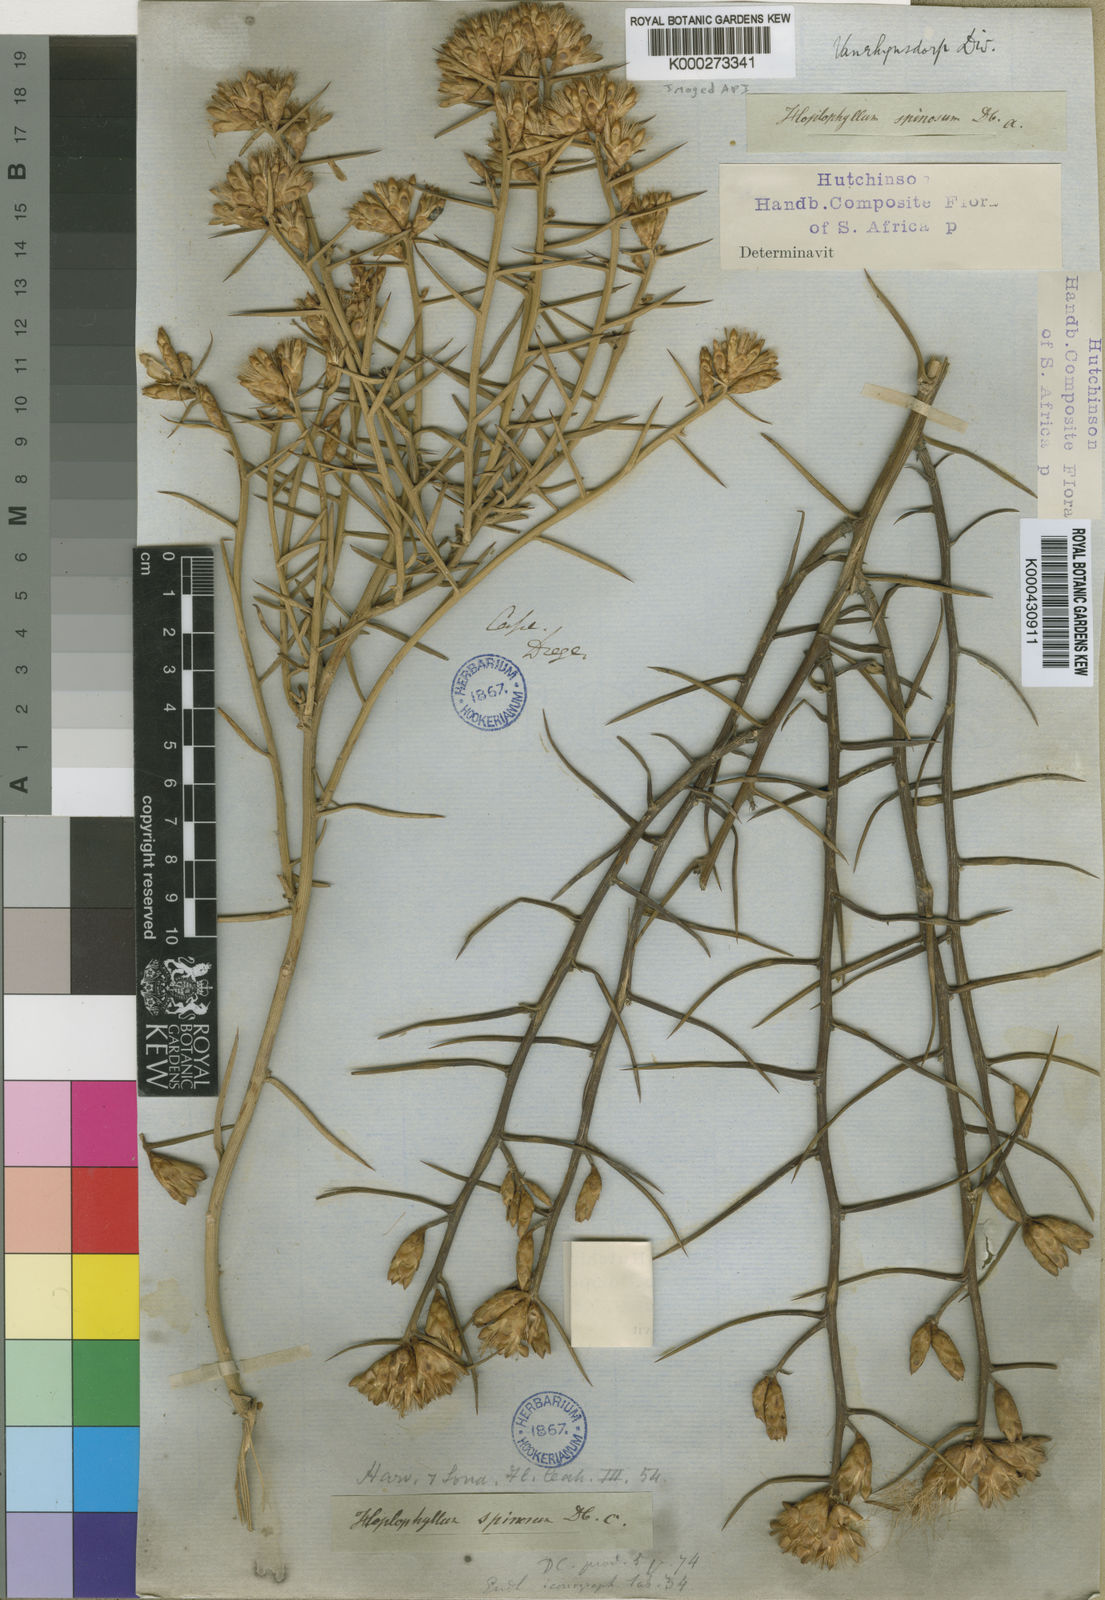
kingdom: Plantae
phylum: Tracheophyta
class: Magnoliopsida
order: Asterales
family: Asteraceae
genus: Hoplophyllum
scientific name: Hoplophyllum spinosum
